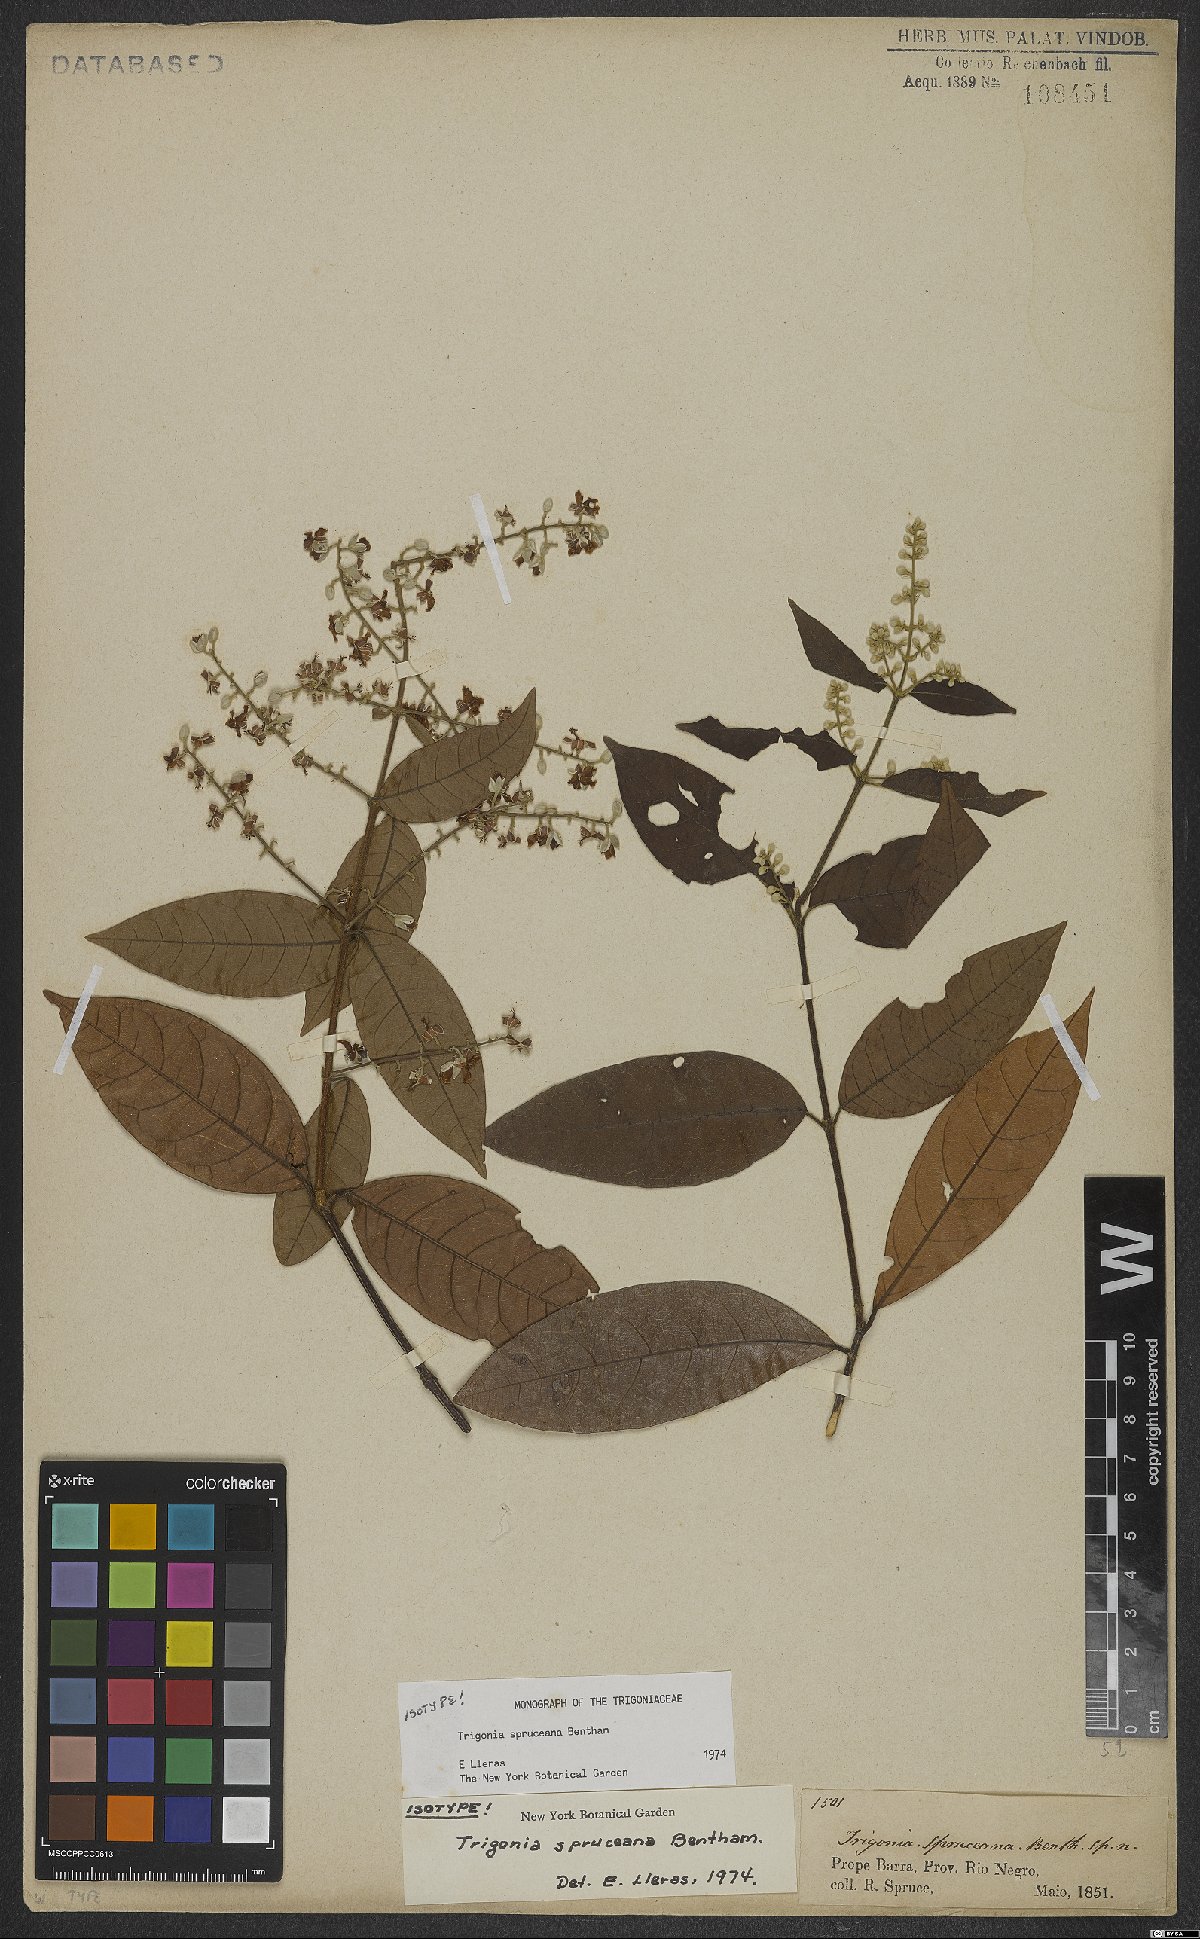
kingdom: Plantae
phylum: Tracheophyta
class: Magnoliopsida
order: Malpighiales
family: Trigoniaceae
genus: Trigonia
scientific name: Trigonia spruceana
